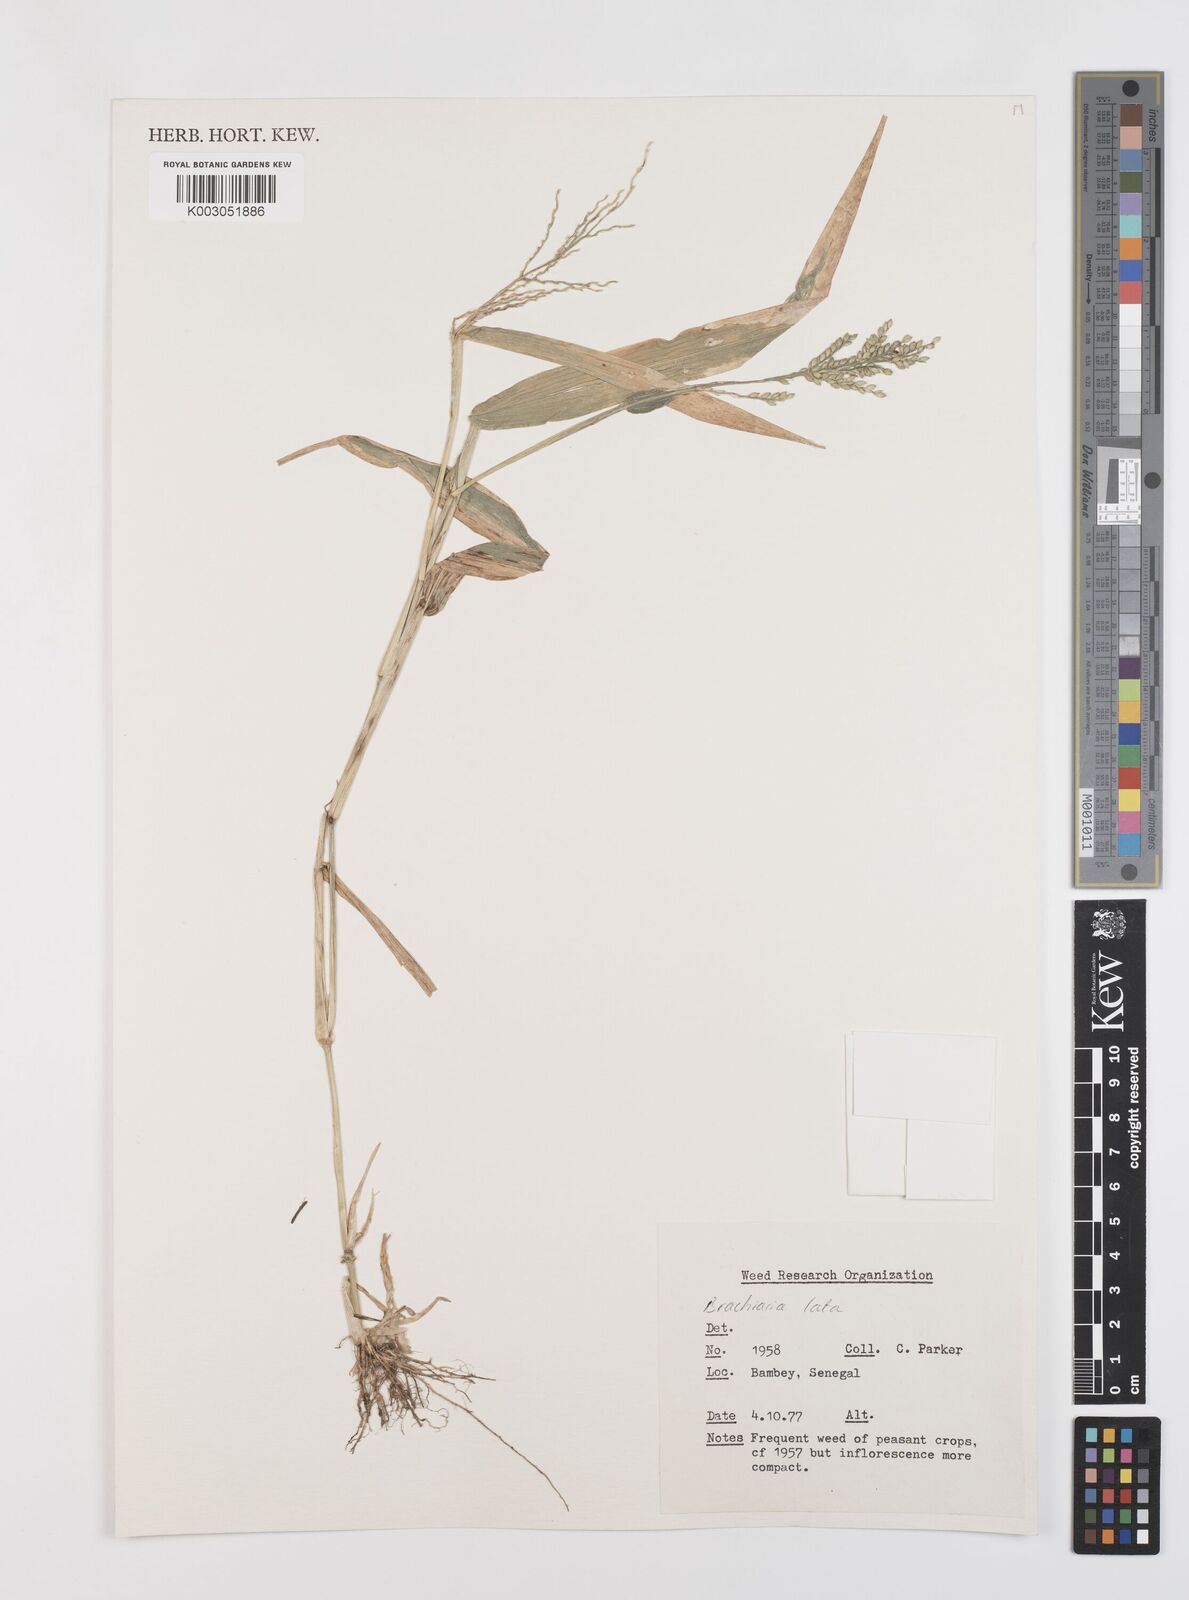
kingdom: Plantae
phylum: Tracheophyta
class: Liliopsida
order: Poales
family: Poaceae
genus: Urochloa
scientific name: Urochloa lata
